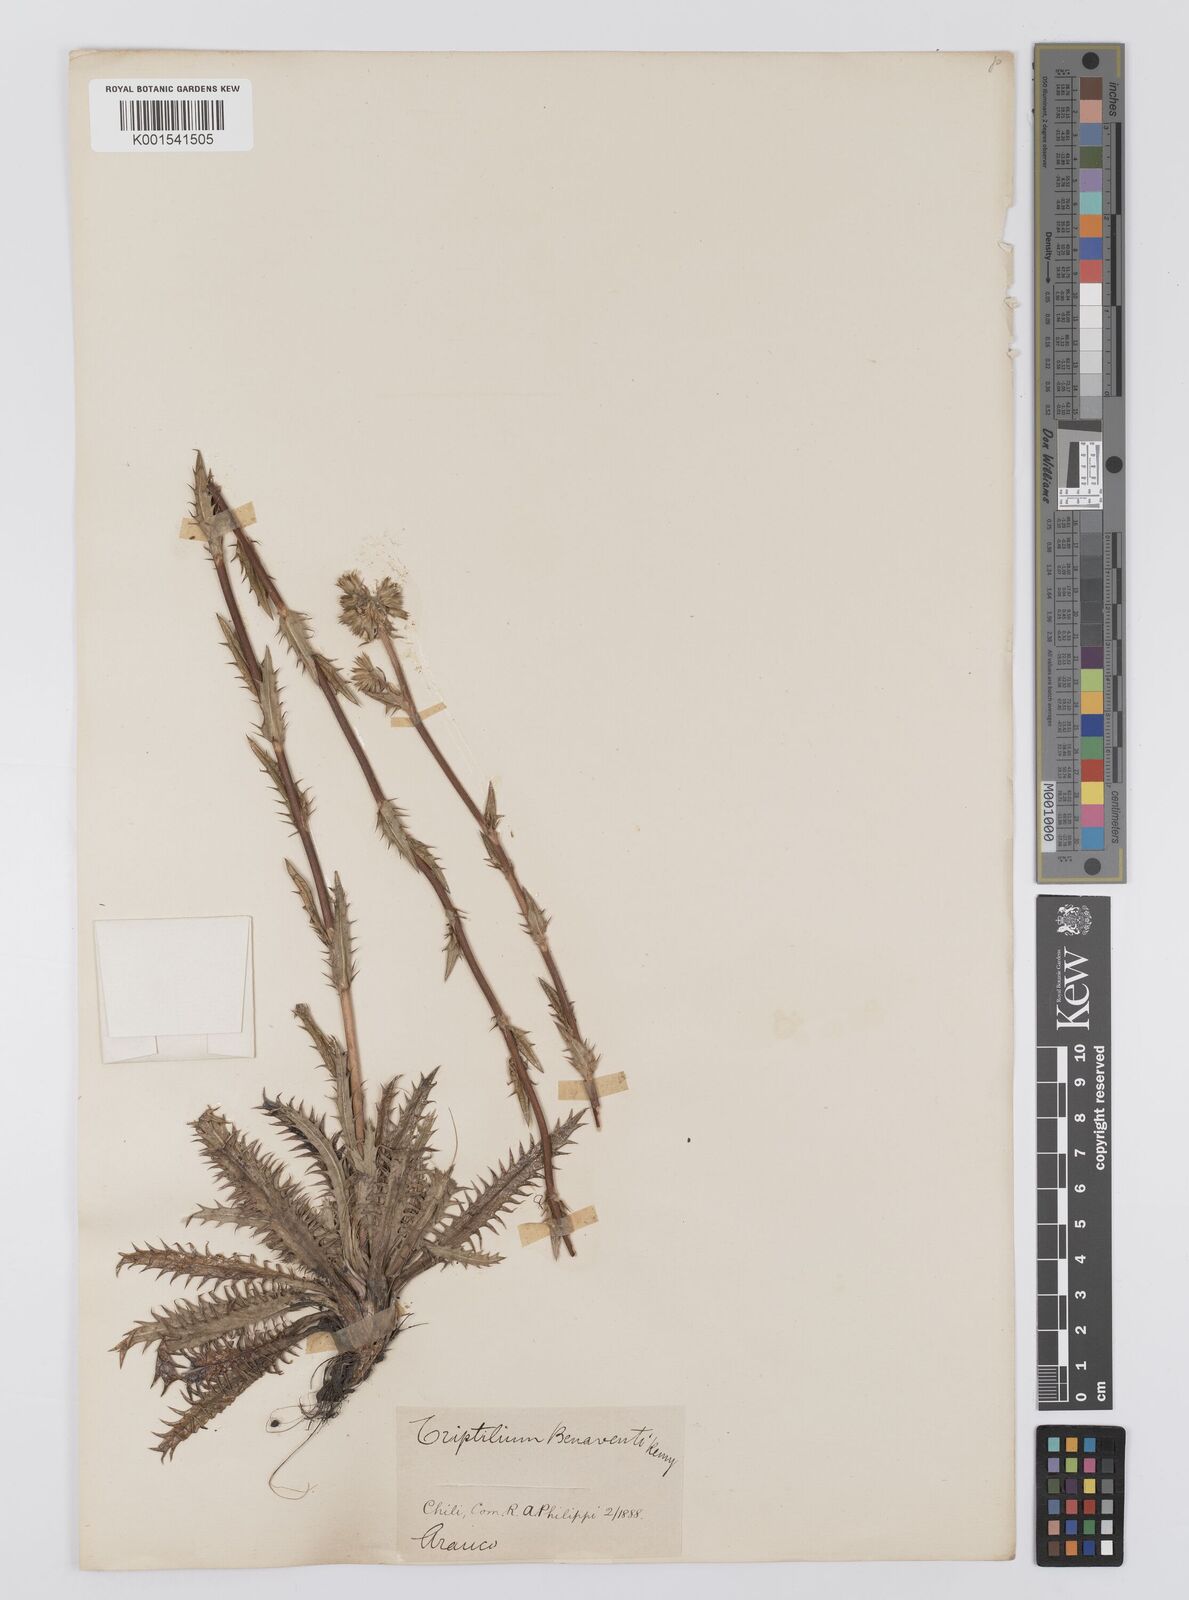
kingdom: Plantae
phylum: Tracheophyta
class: Magnoliopsida
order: Asterales
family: Asteraceae
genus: Triptilion
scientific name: Triptilion benaventii
